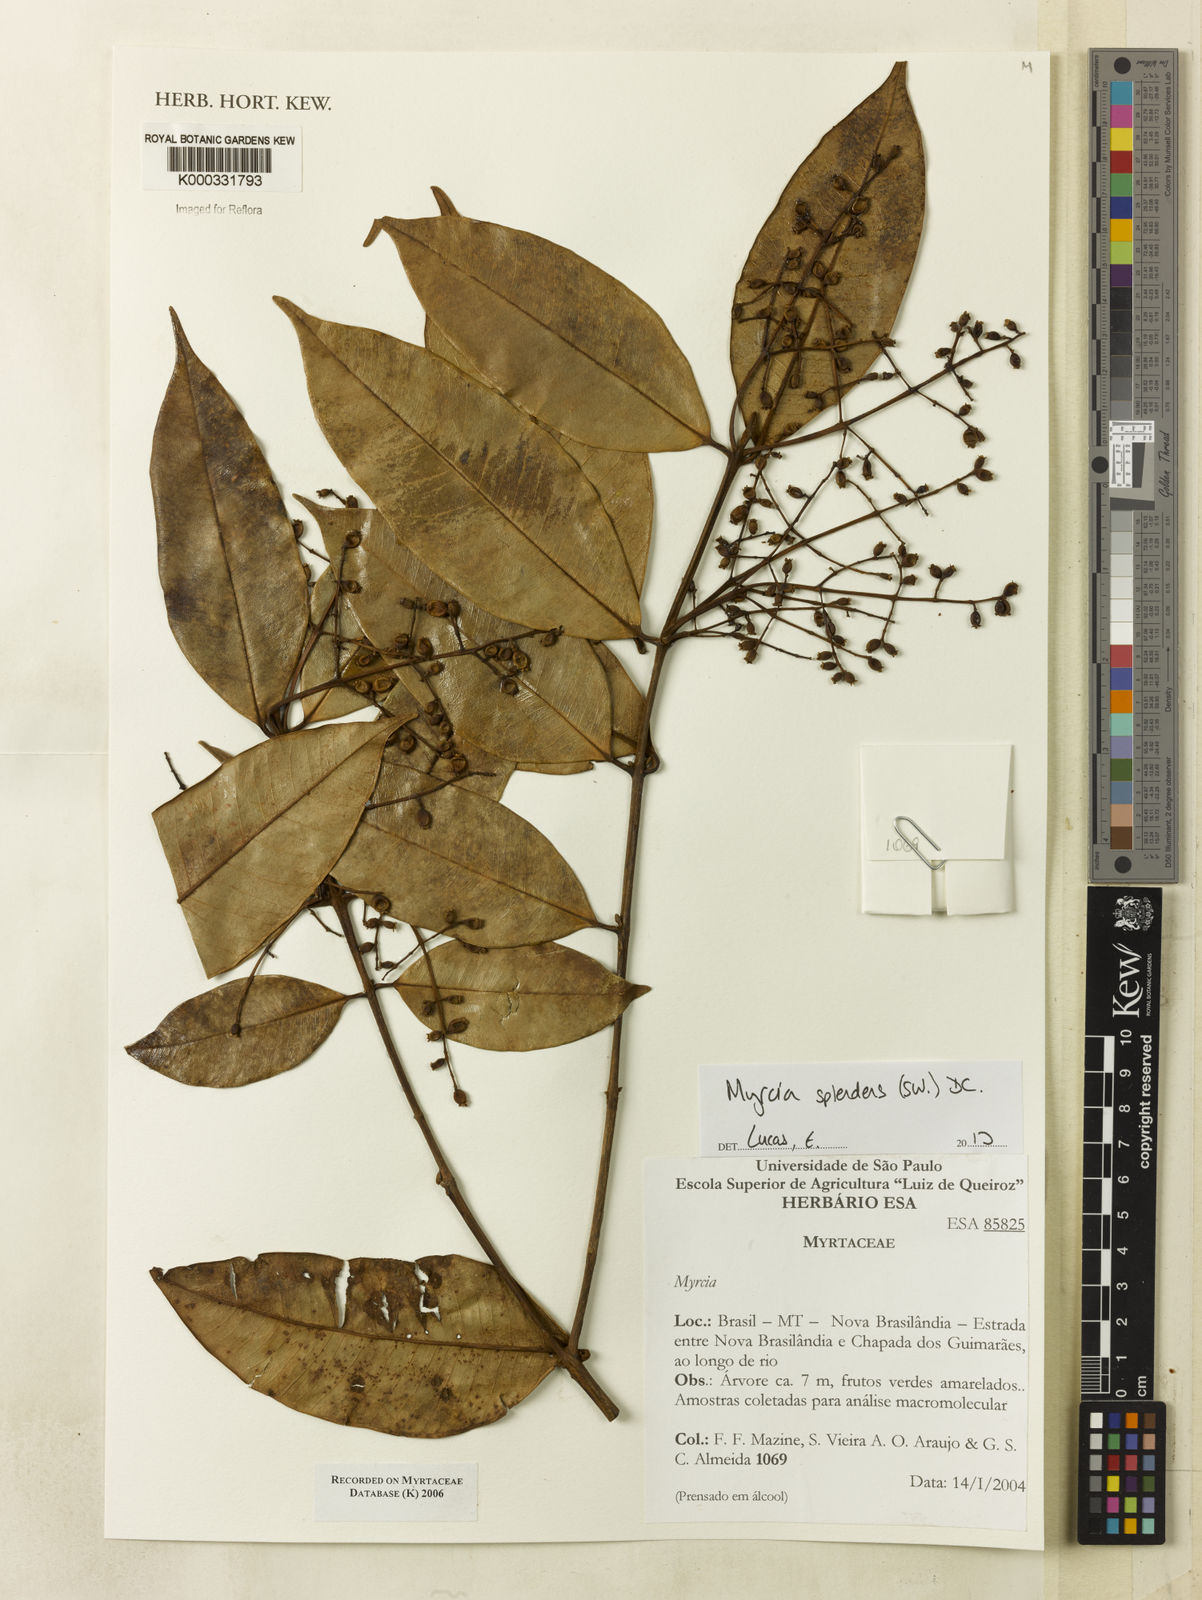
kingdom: Plantae
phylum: Tracheophyta
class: Magnoliopsida
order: Myrtales
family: Myrtaceae
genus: Myrcia
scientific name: Myrcia
